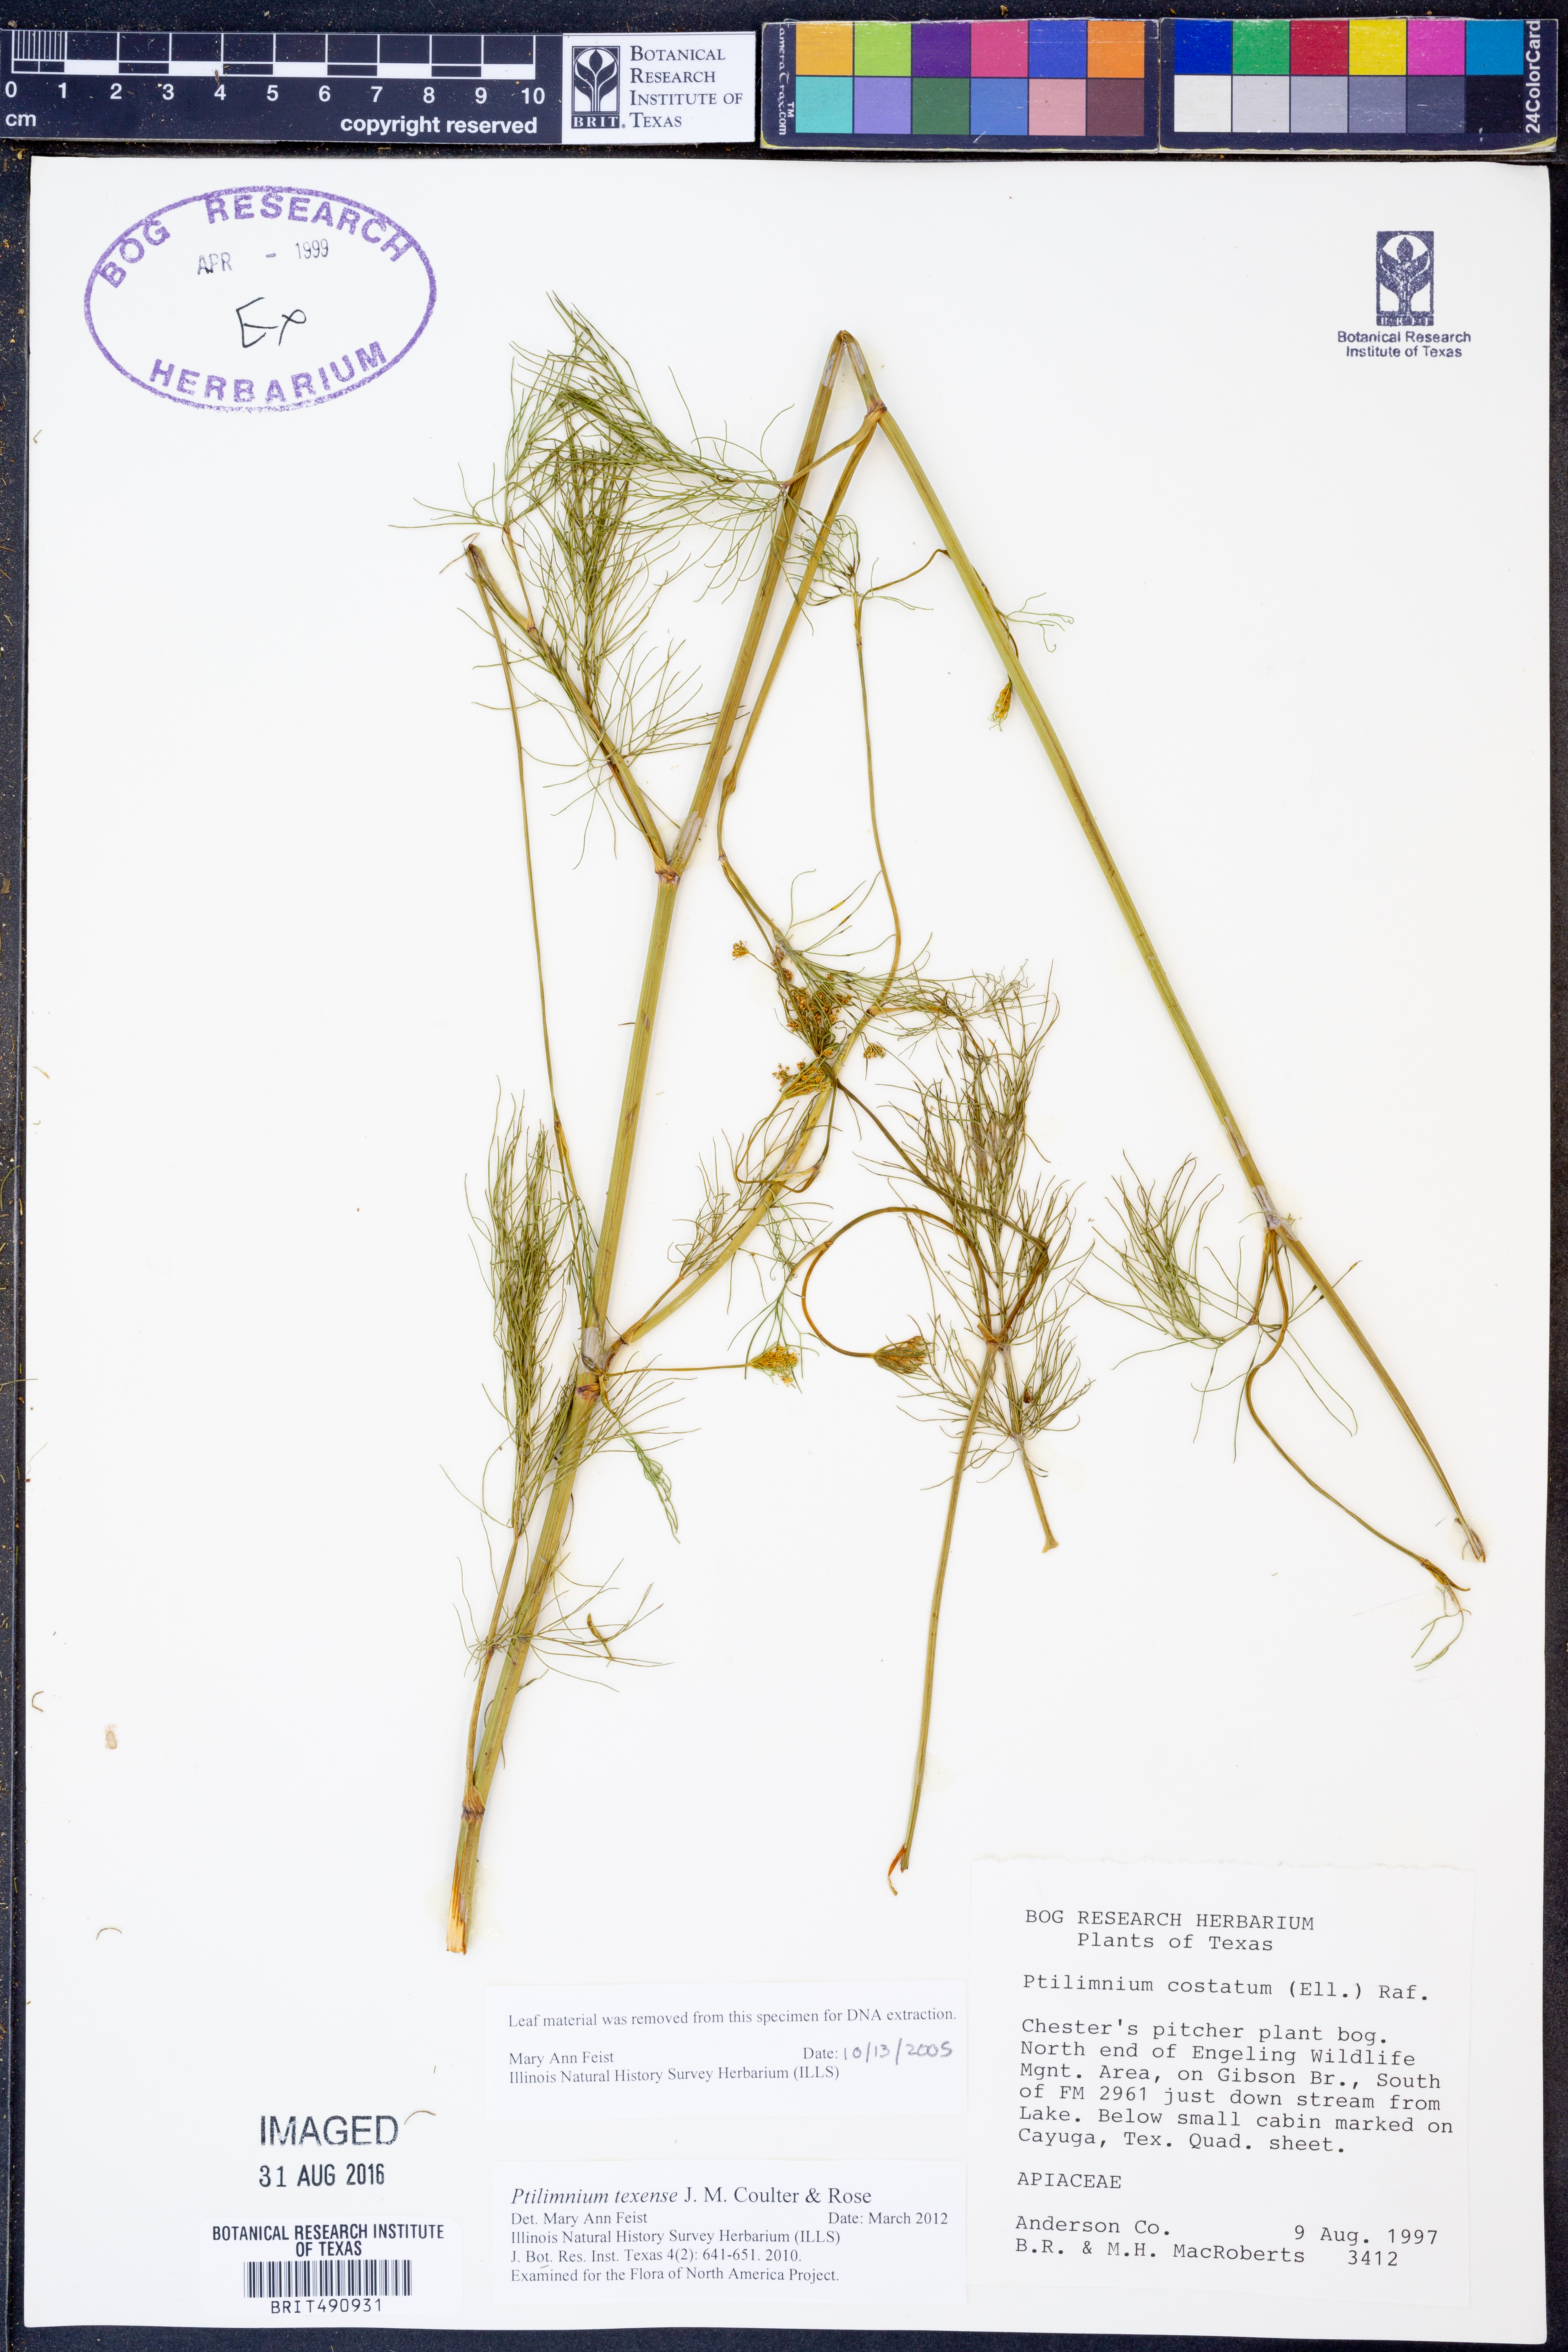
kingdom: Plantae
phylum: Tracheophyta
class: Magnoliopsida
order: Apiales
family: Apiaceae
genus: Ptilimnium
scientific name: Ptilimnium texense
